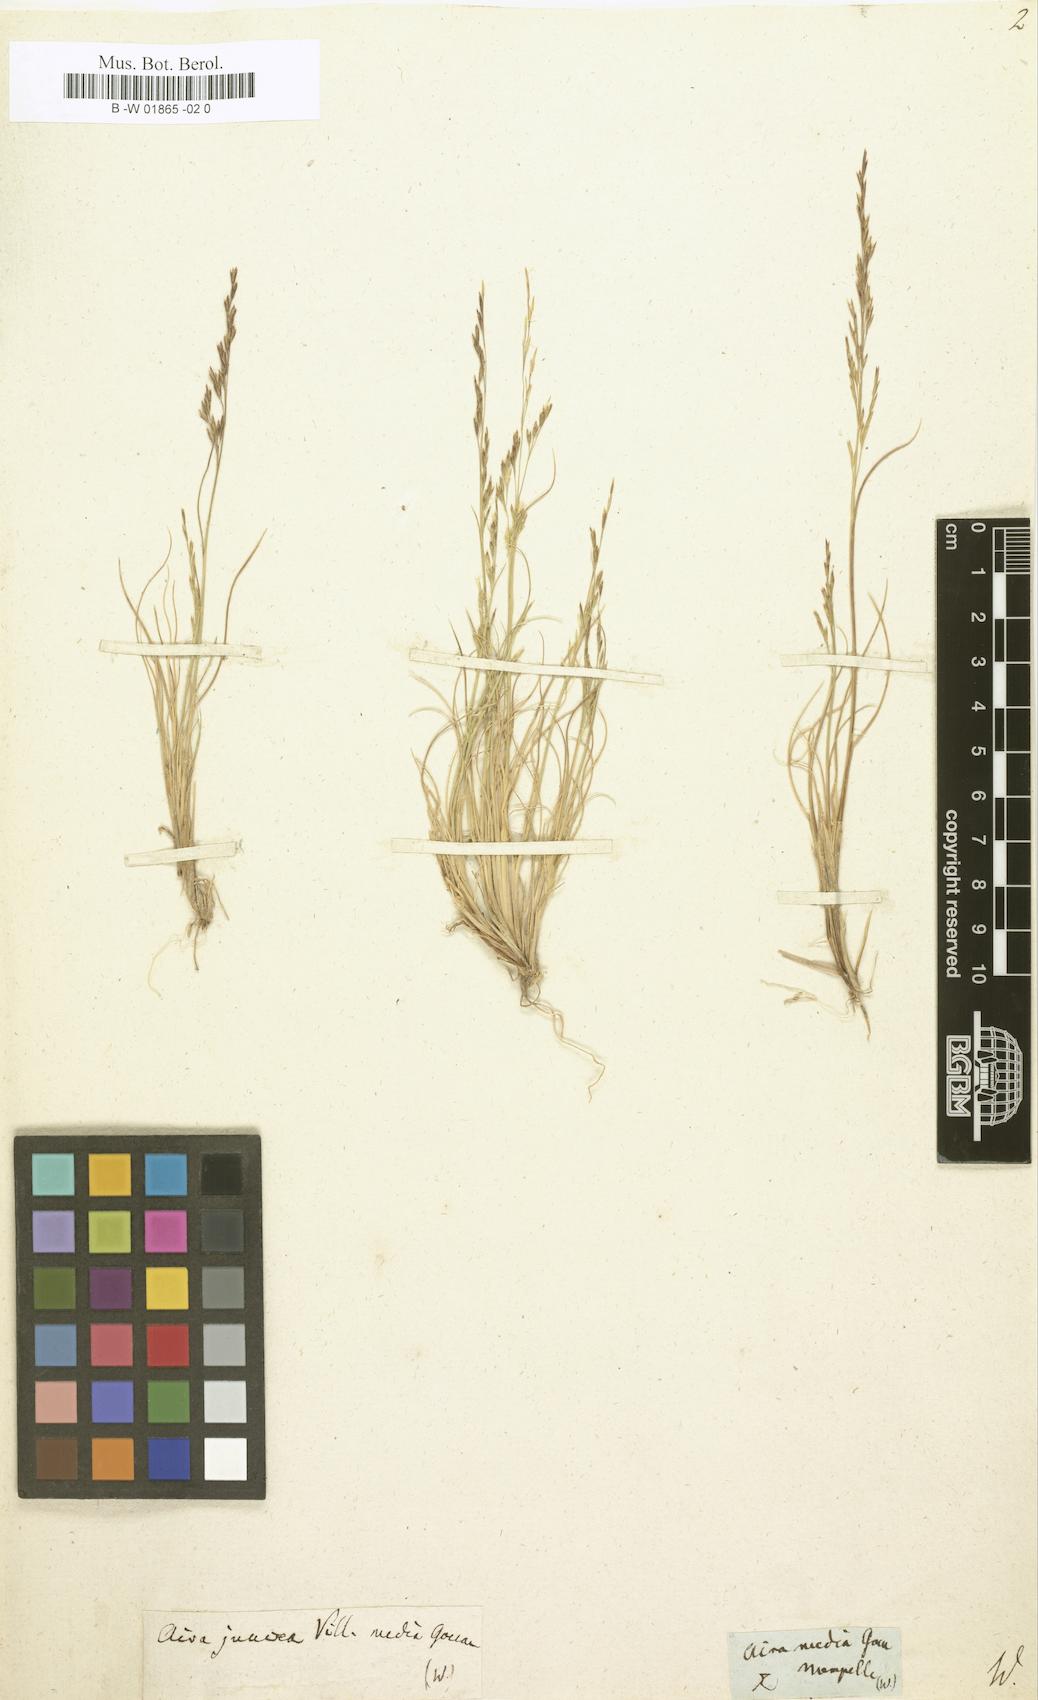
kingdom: Plantae
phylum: Tracheophyta
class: Liliopsida
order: Poales
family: Poaceae
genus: Deschampsia
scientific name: Deschampsia media
